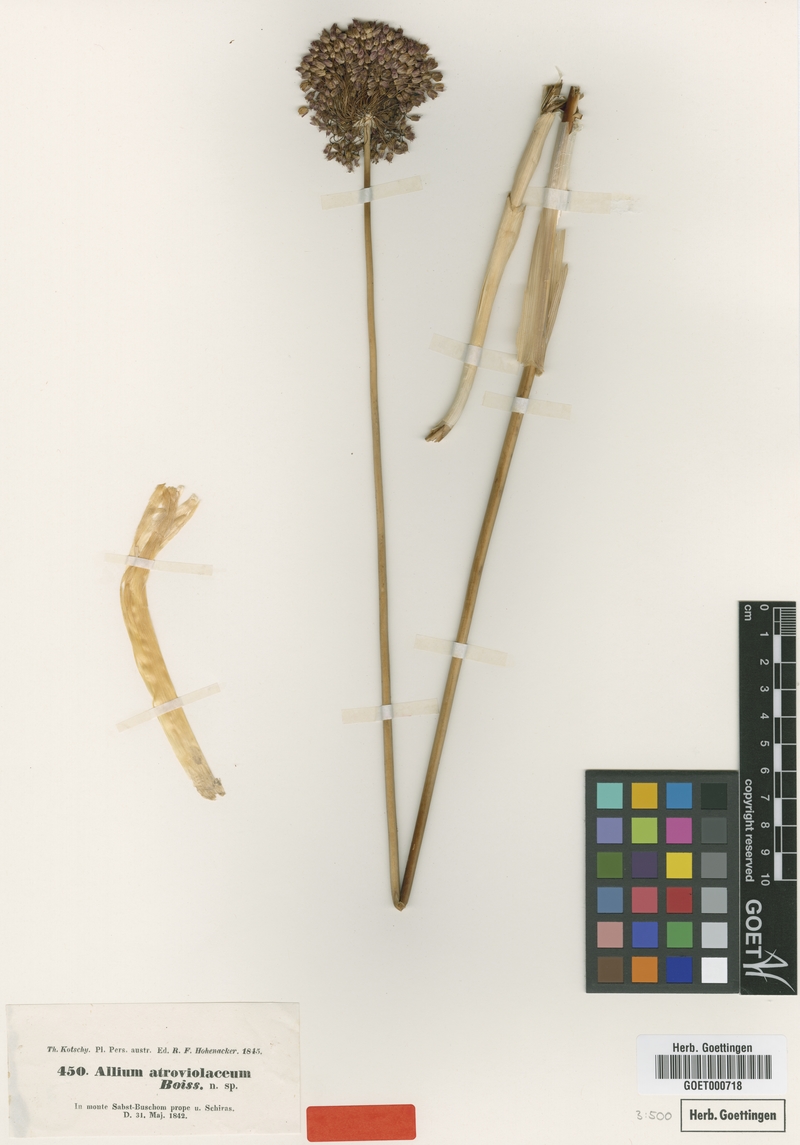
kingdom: Plantae
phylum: Tracheophyta
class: Liliopsida
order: Asparagales
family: Amaryllidaceae
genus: Allium
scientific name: Allium atroviolaceum
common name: Broadleaf wild leek
